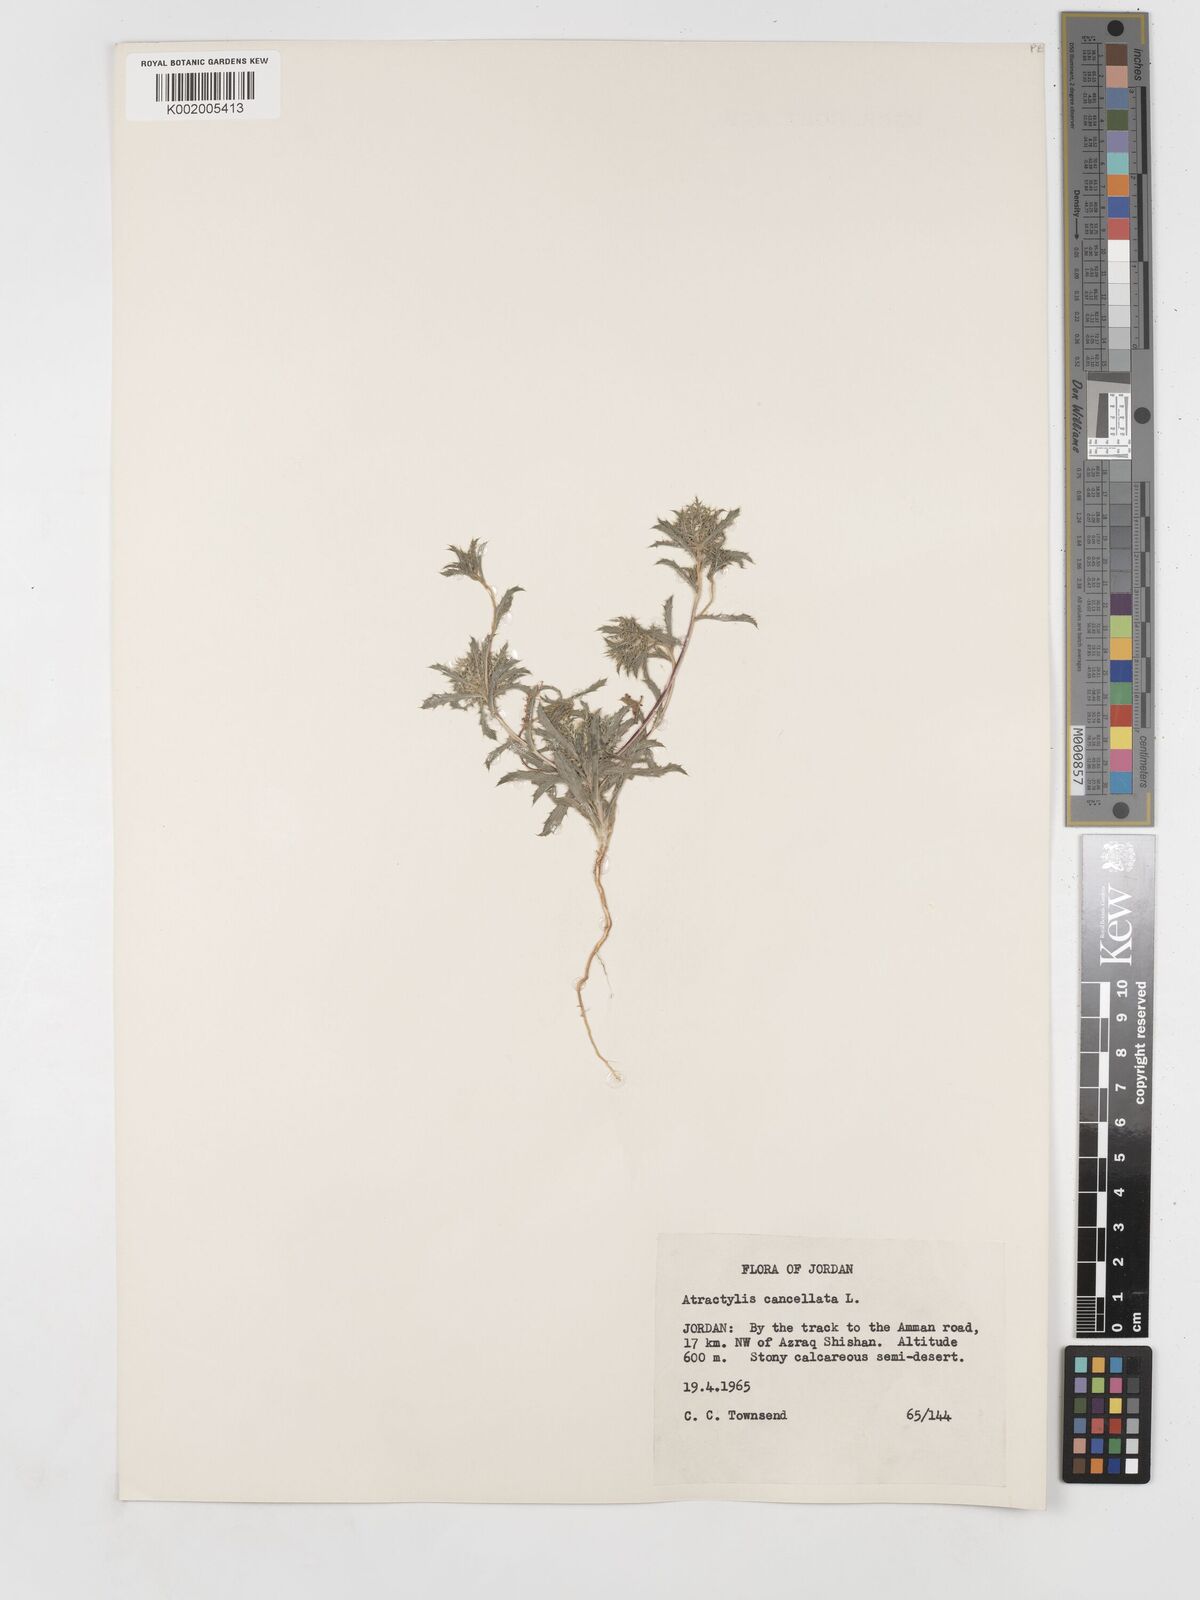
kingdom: Plantae
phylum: Tracheophyta
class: Magnoliopsida
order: Asterales
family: Asteraceae
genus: Atractylis
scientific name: Atractylis cancellata
